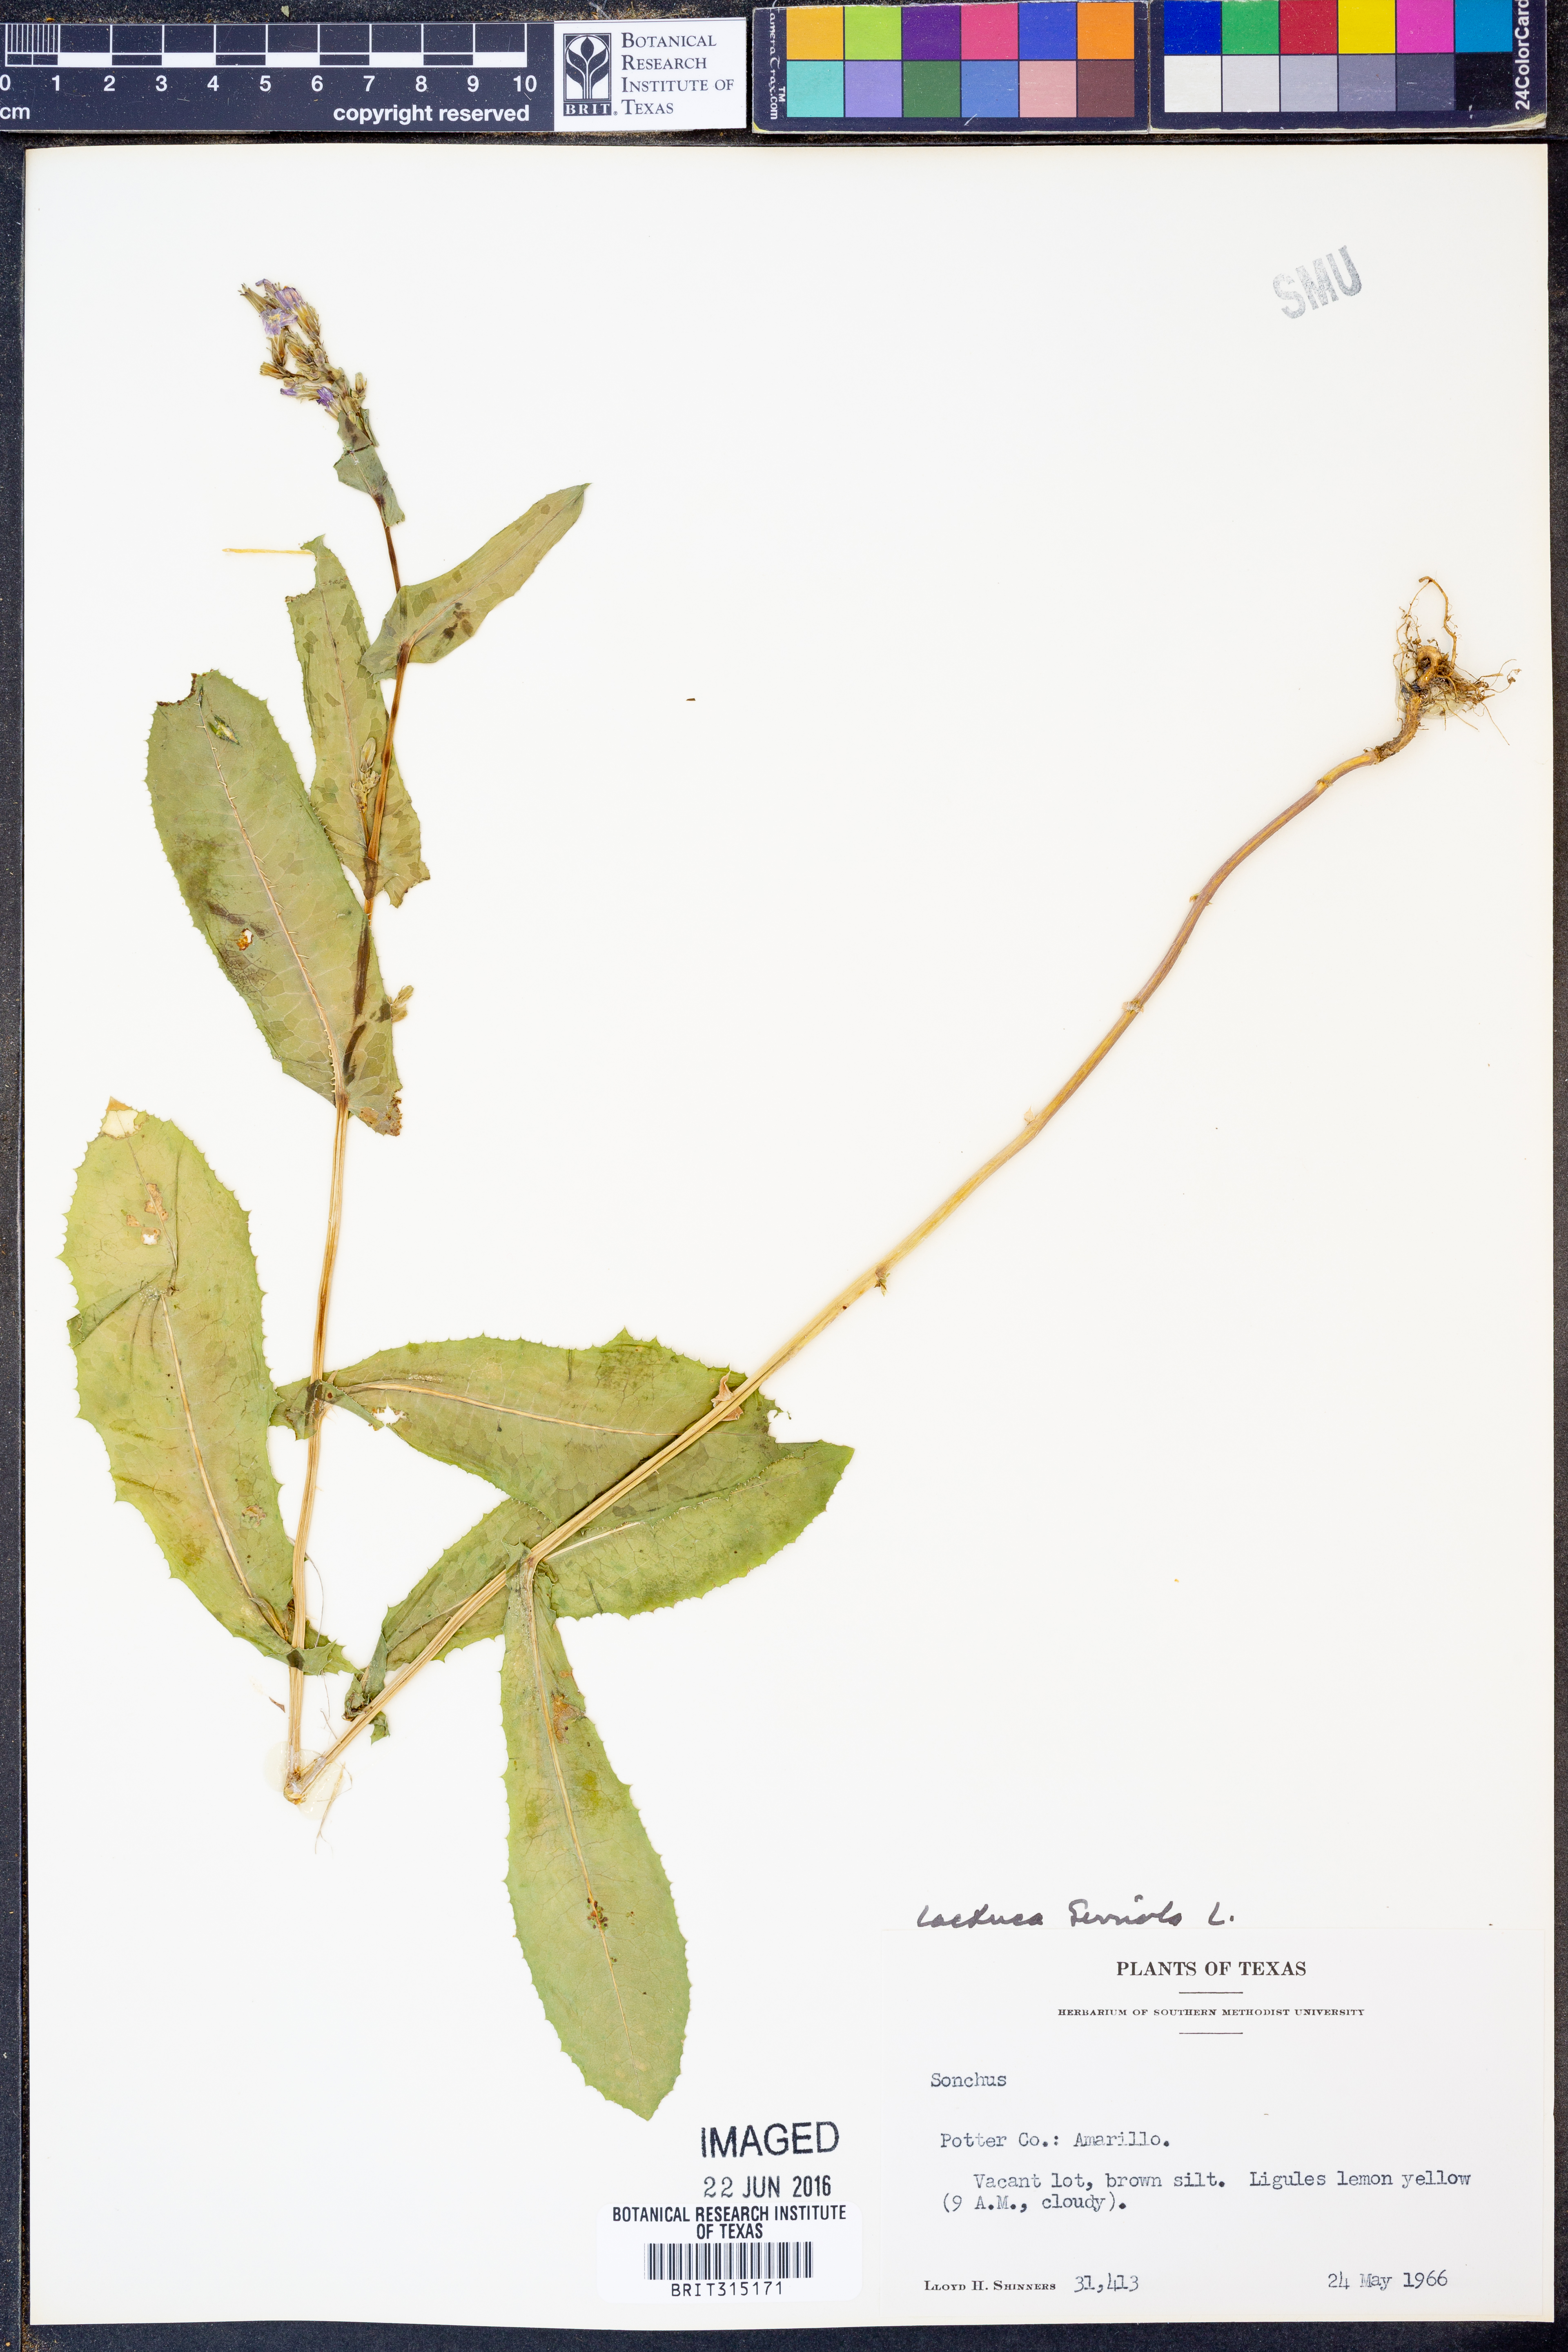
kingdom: Plantae
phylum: Tracheophyta
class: Magnoliopsida
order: Asterales
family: Asteraceae
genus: Lactuca
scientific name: Lactuca serriola
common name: Prickly lettuce
